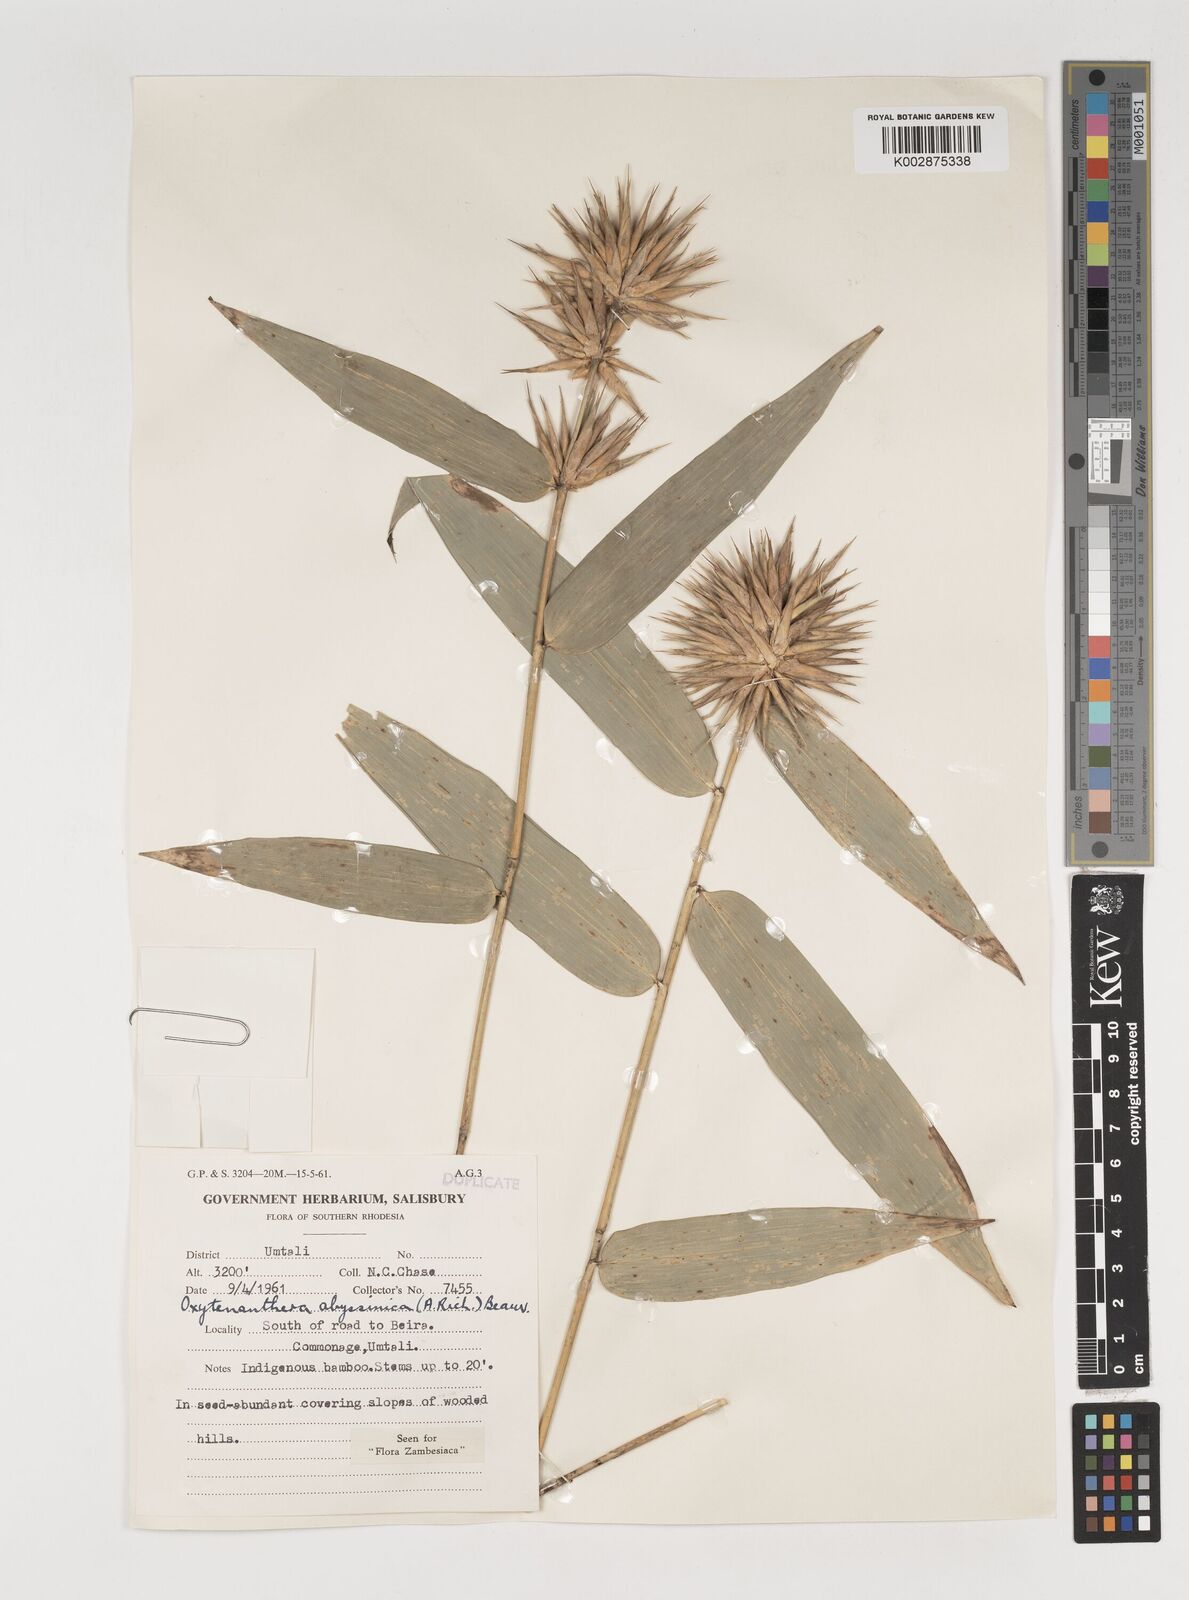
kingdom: Plantae
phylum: Tracheophyta
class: Liliopsida
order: Poales
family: Poaceae
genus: Oxytenanthera
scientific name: Oxytenanthera abyssinica
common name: Wine bamboo
